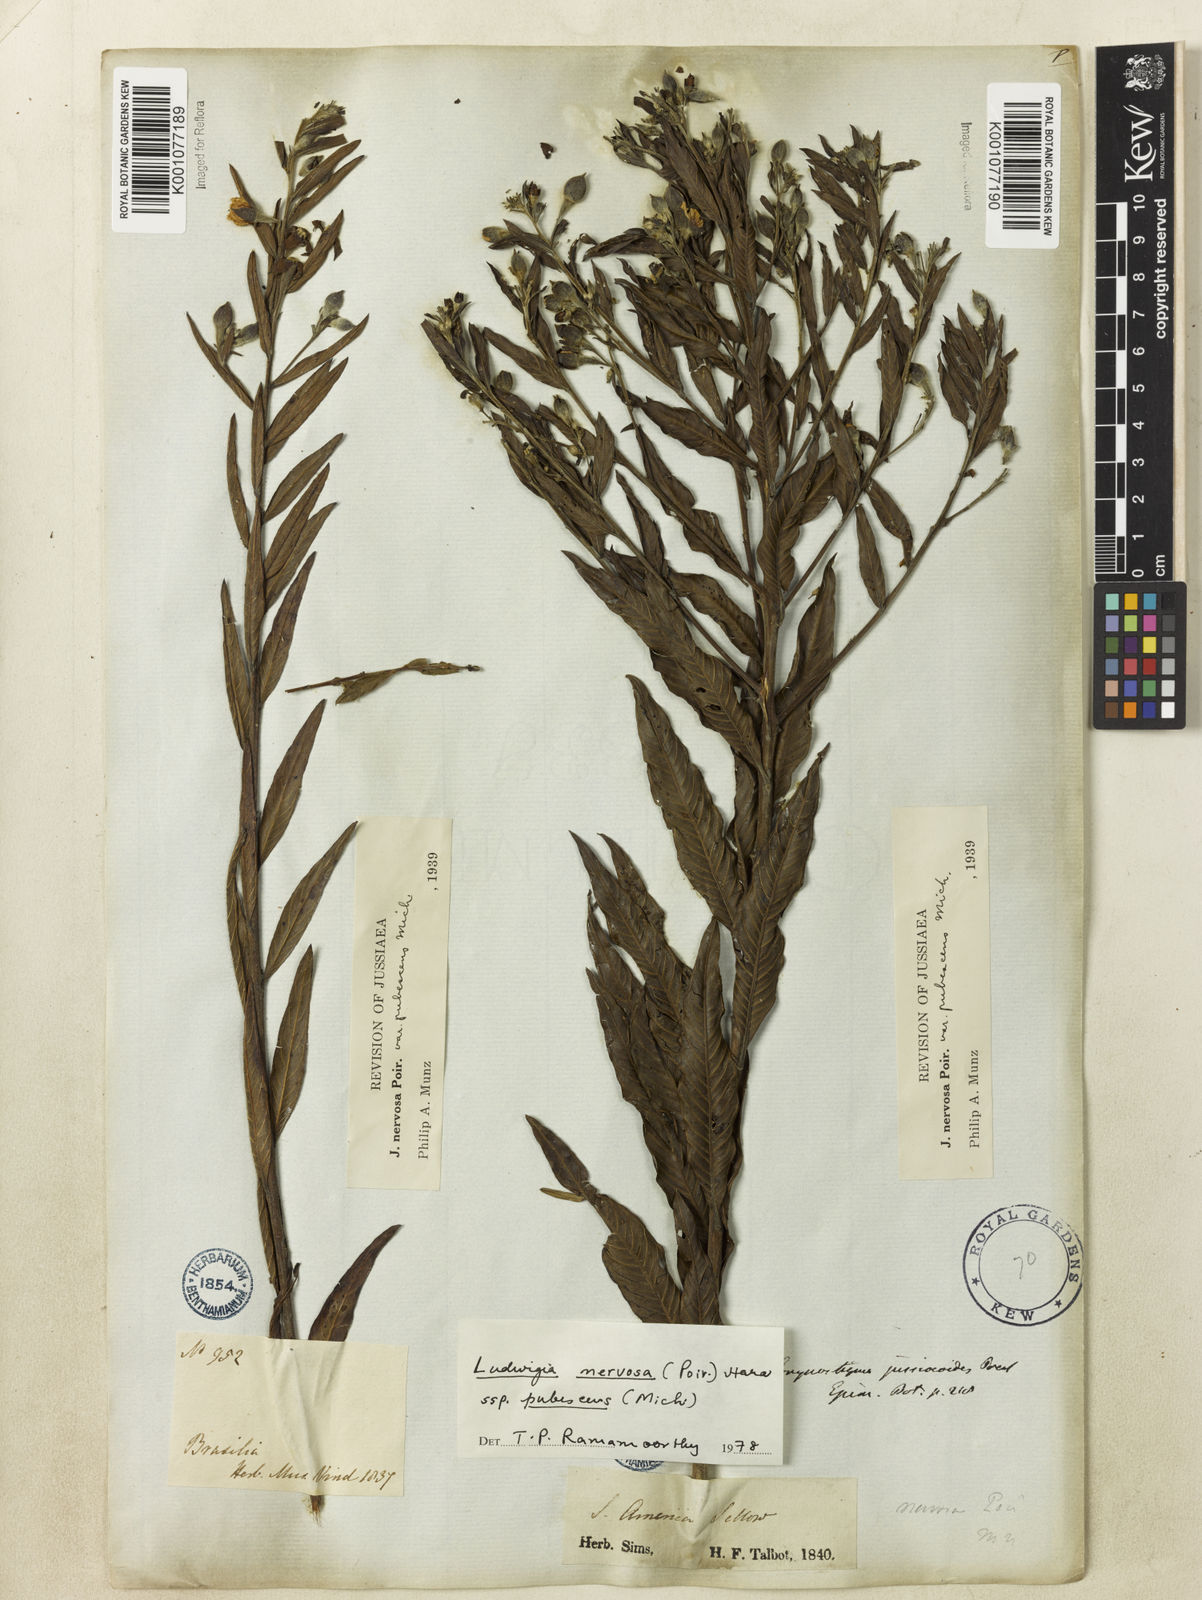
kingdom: Plantae
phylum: Tracheophyta
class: Magnoliopsida
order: Myrtales
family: Onagraceae
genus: Ludwigia
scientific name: Ludwigia nervosa
